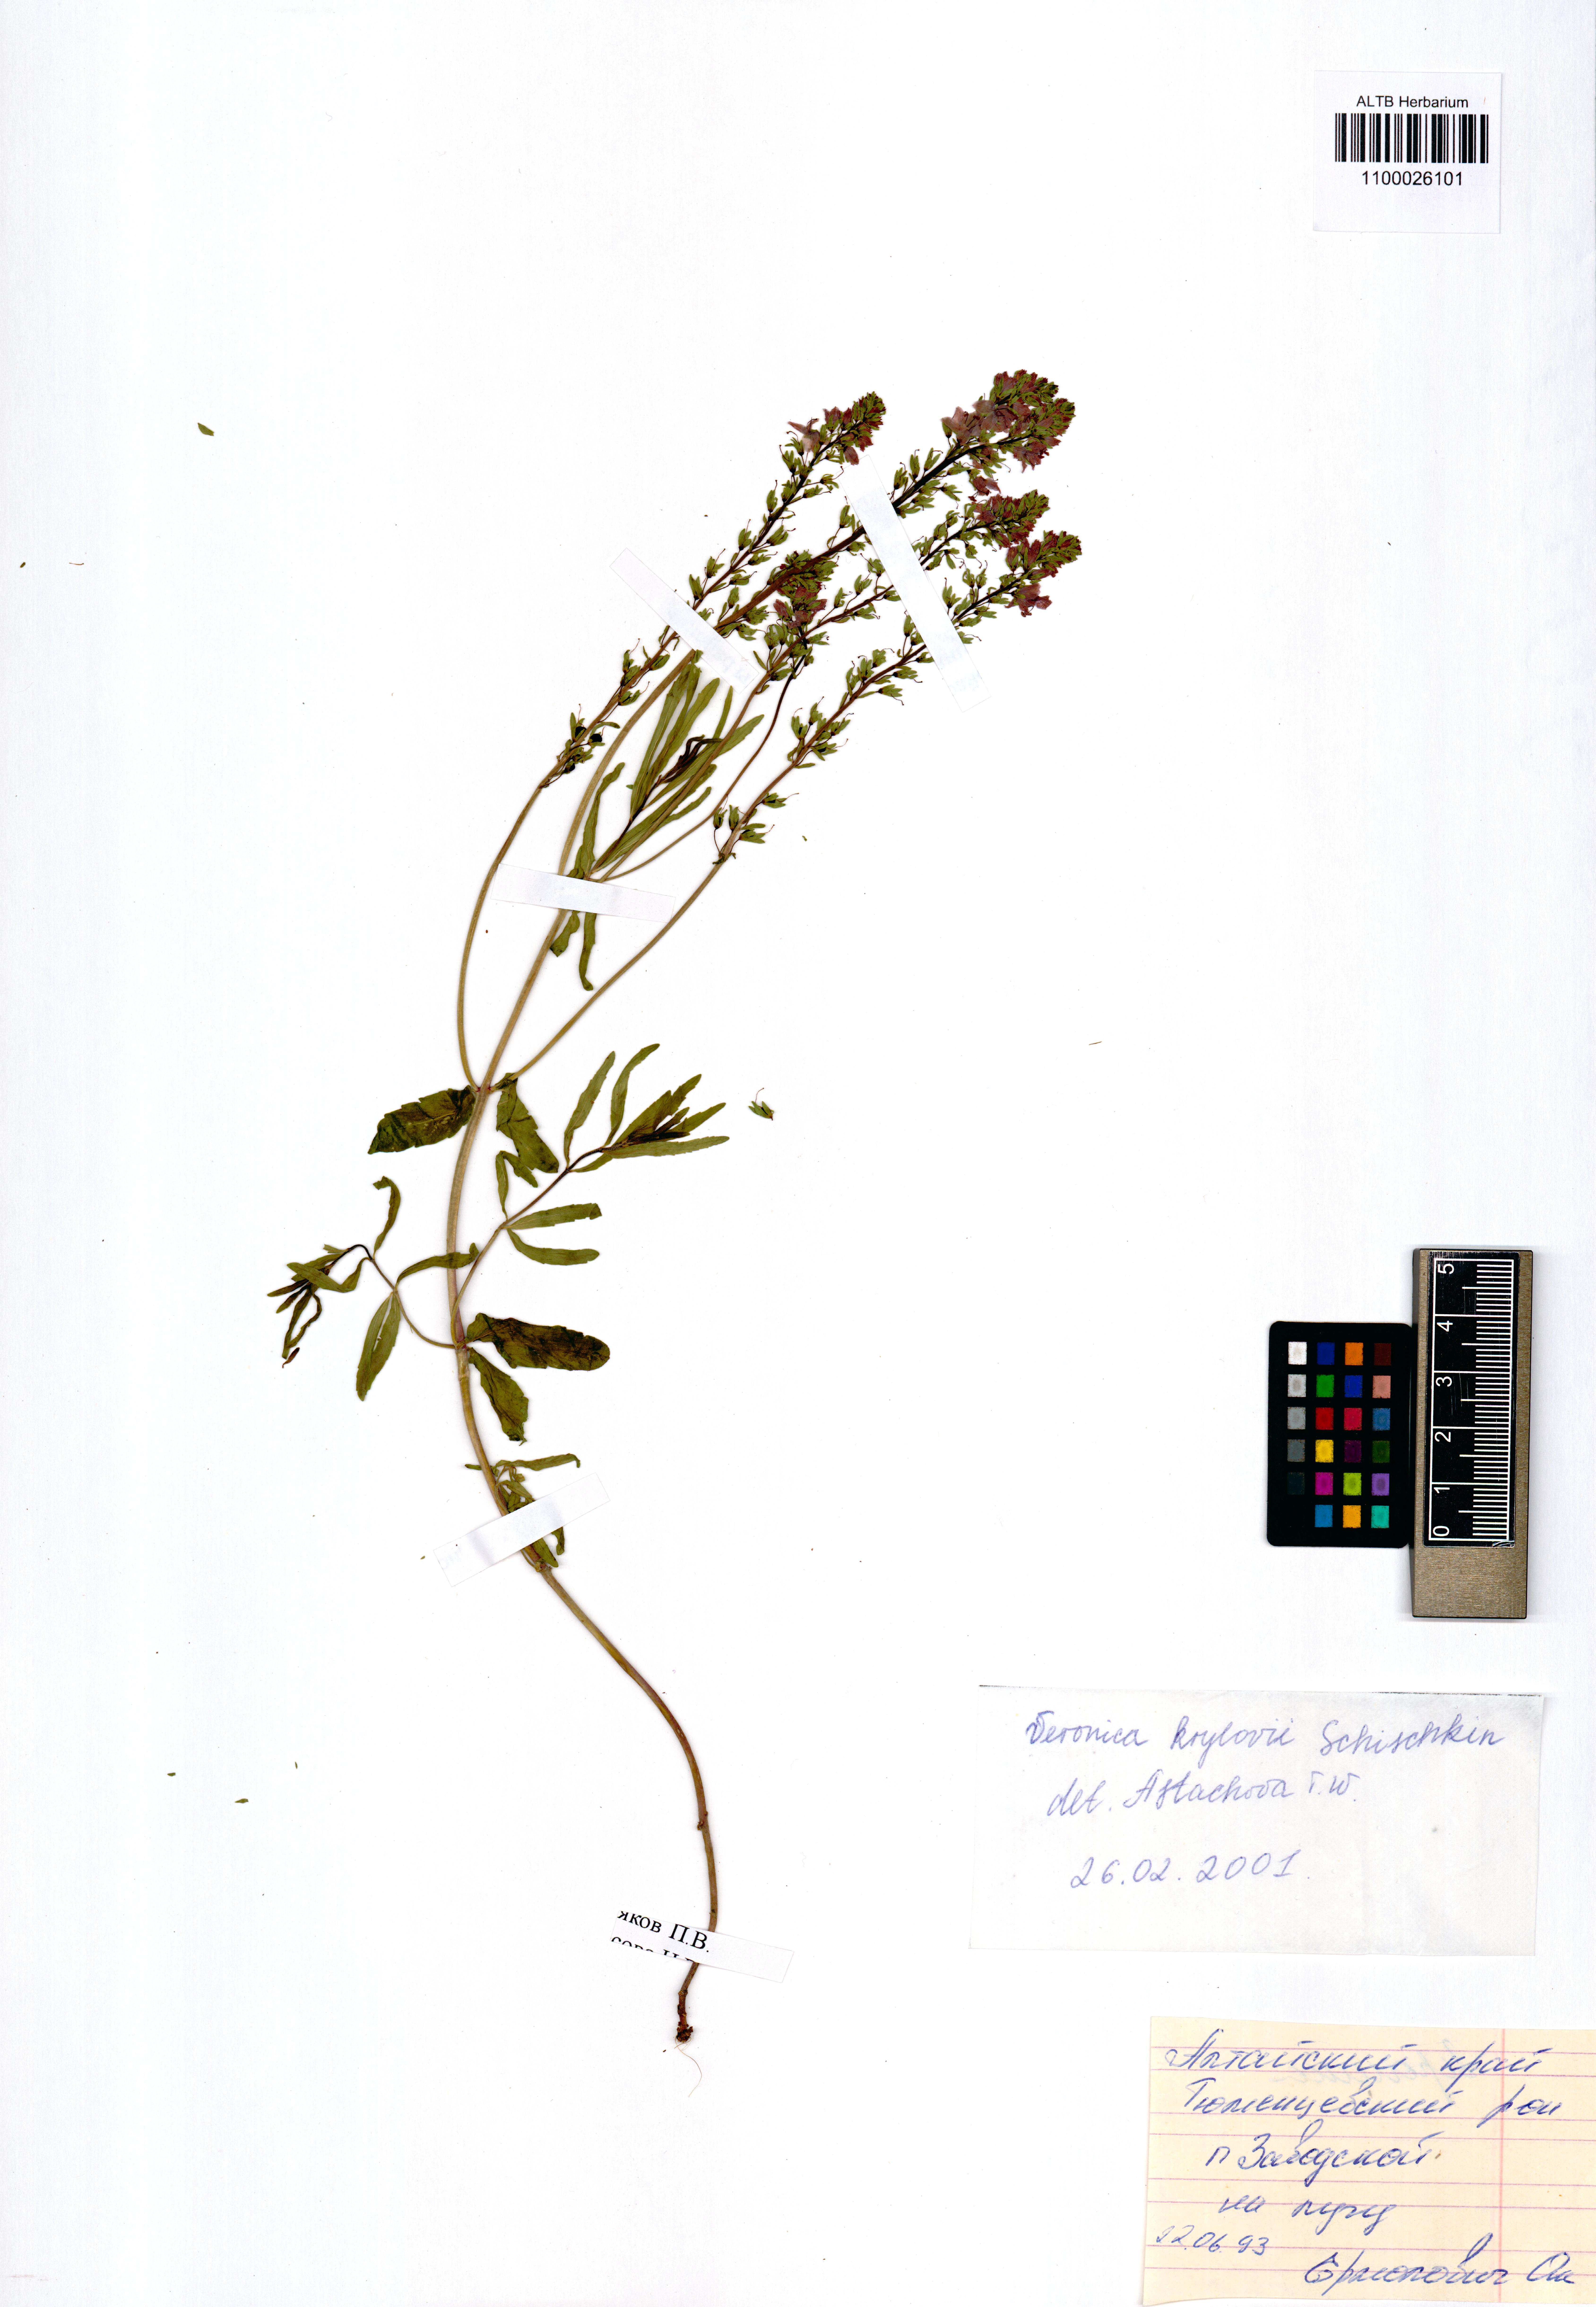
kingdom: Plantae
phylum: Tracheophyta
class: Magnoliopsida
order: Lamiales
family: Plantaginaceae
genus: Veronica
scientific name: Veronica krylovii
